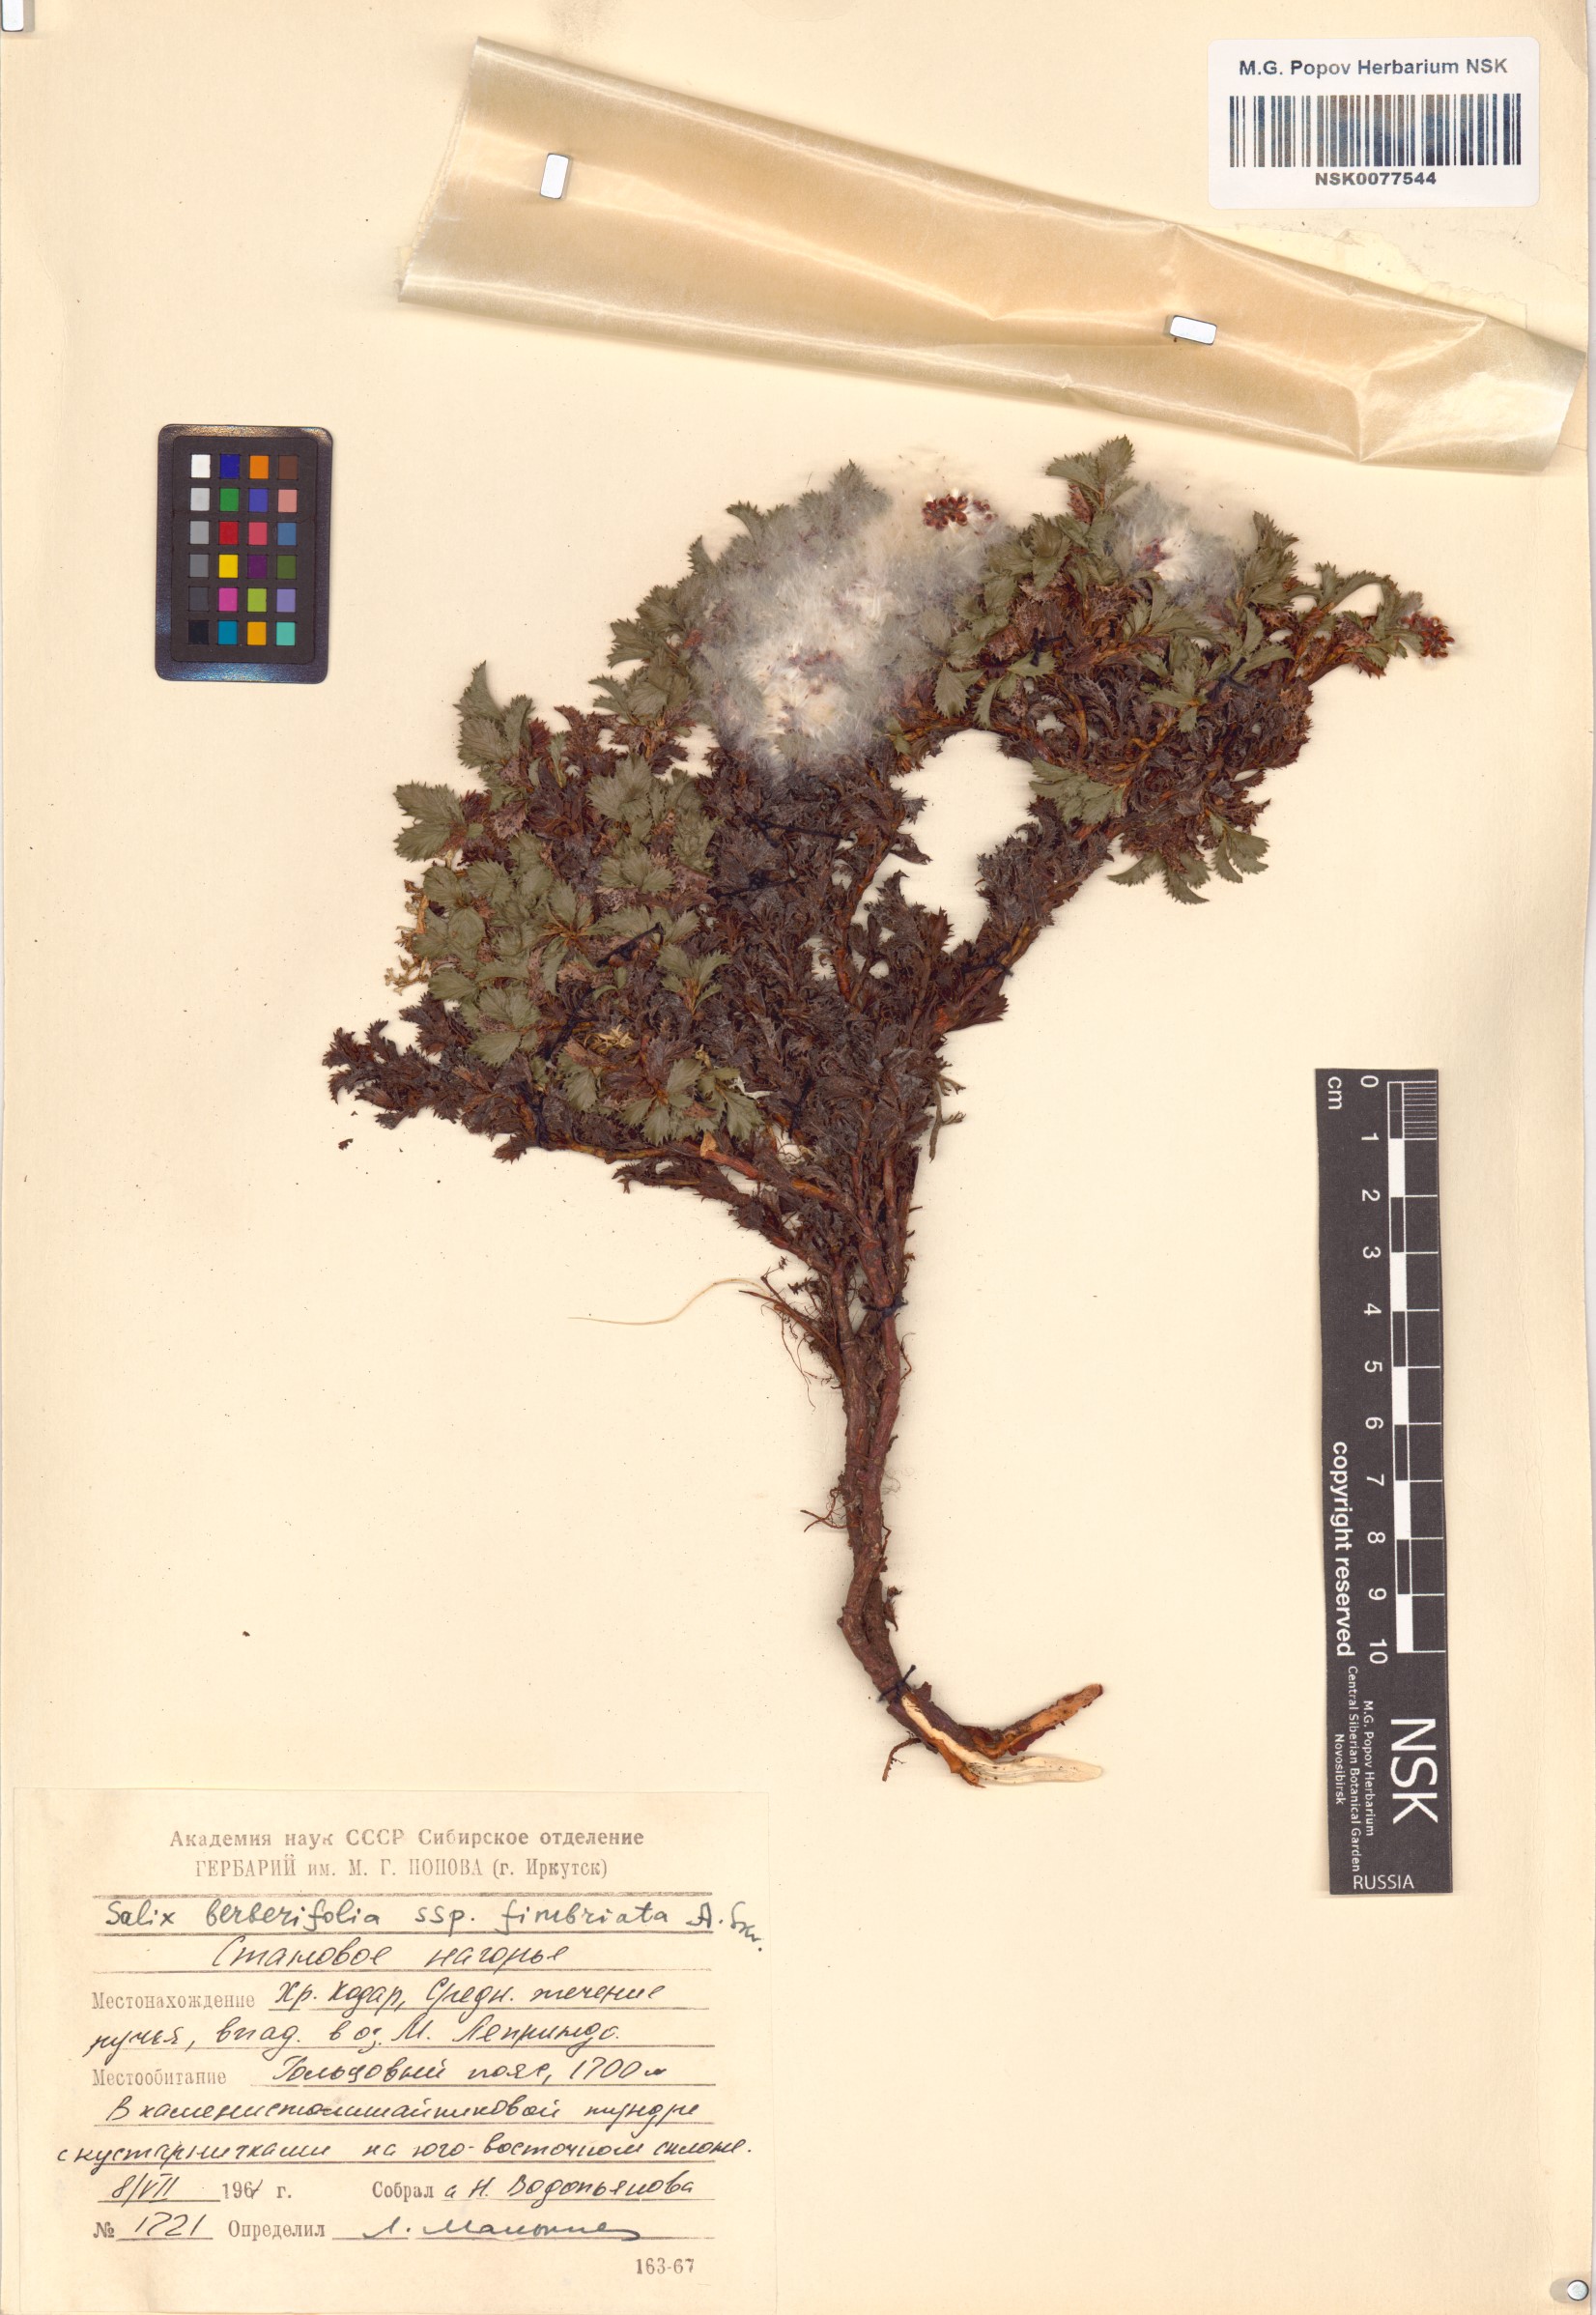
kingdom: Plantae
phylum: Tracheophyta
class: Magnoliopsida
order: Malpighiales
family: Salicaceae
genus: Salix
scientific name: Salix berberifolia
